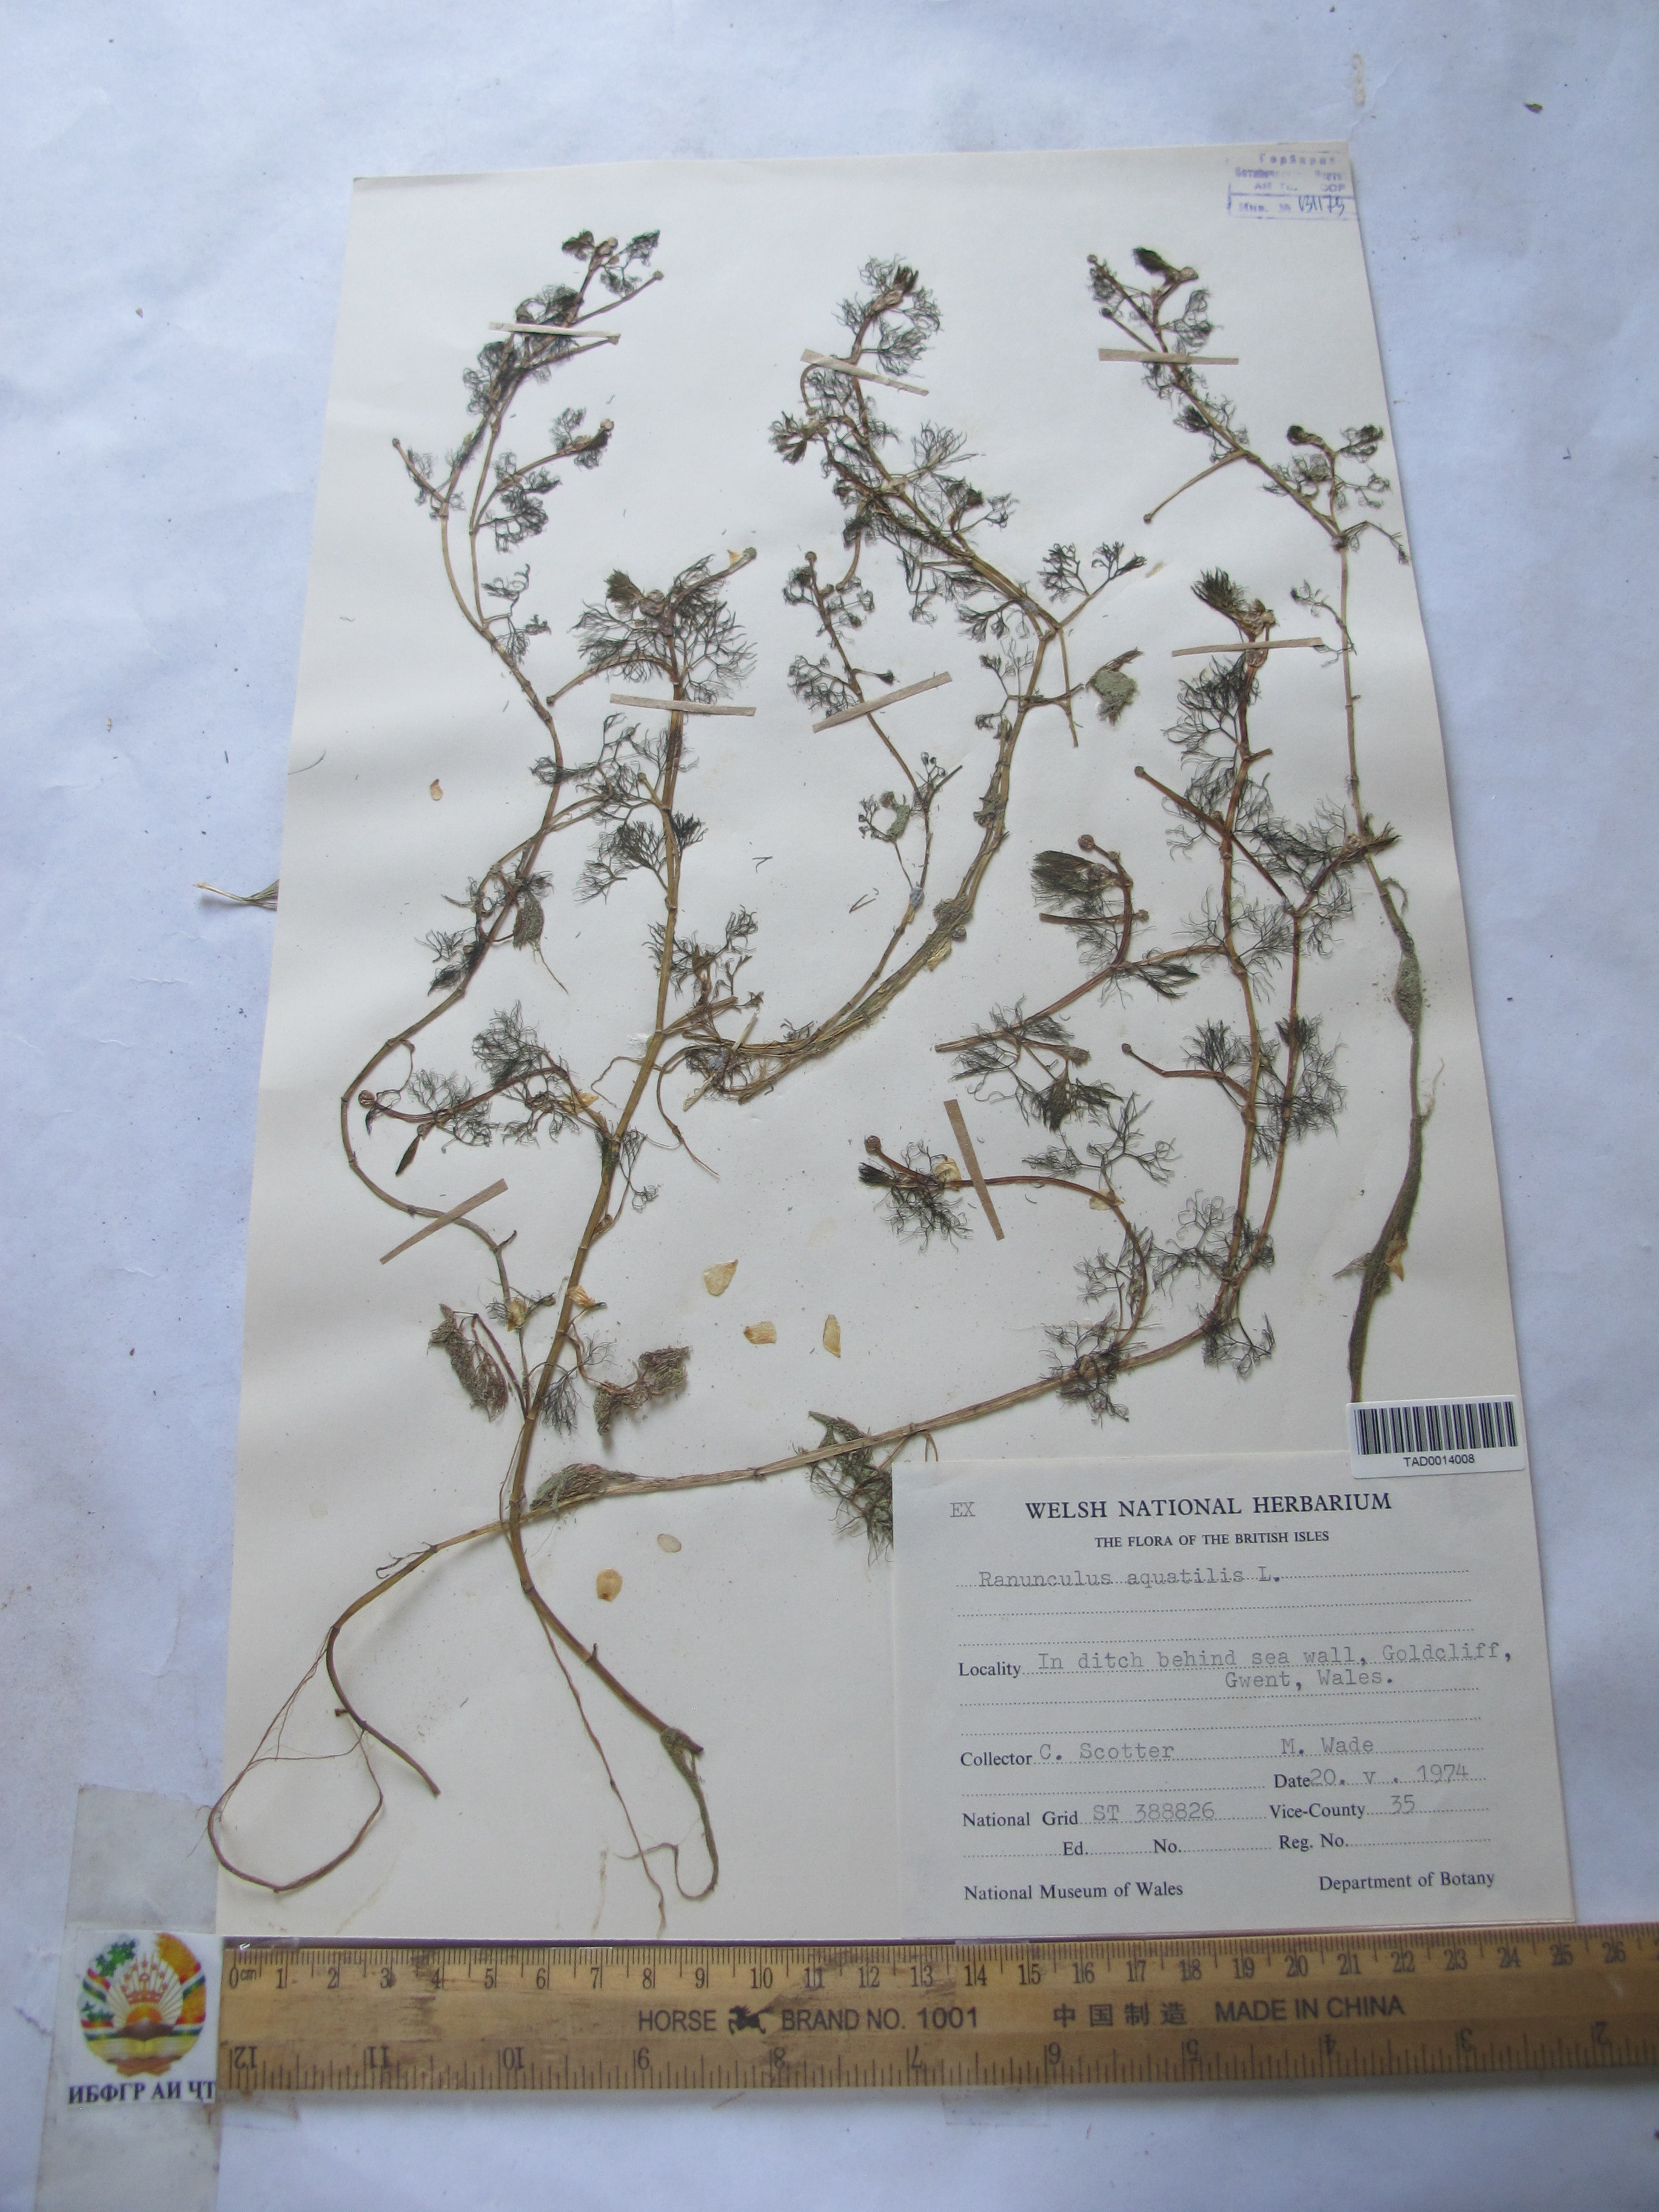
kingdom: Plantae
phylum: Tracheophyta
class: Magnoliopsida
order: Ranunculales
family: Ranunculaceae
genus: Ranunculus
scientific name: Ranunculus aquatilis
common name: Common water-crowfoot
